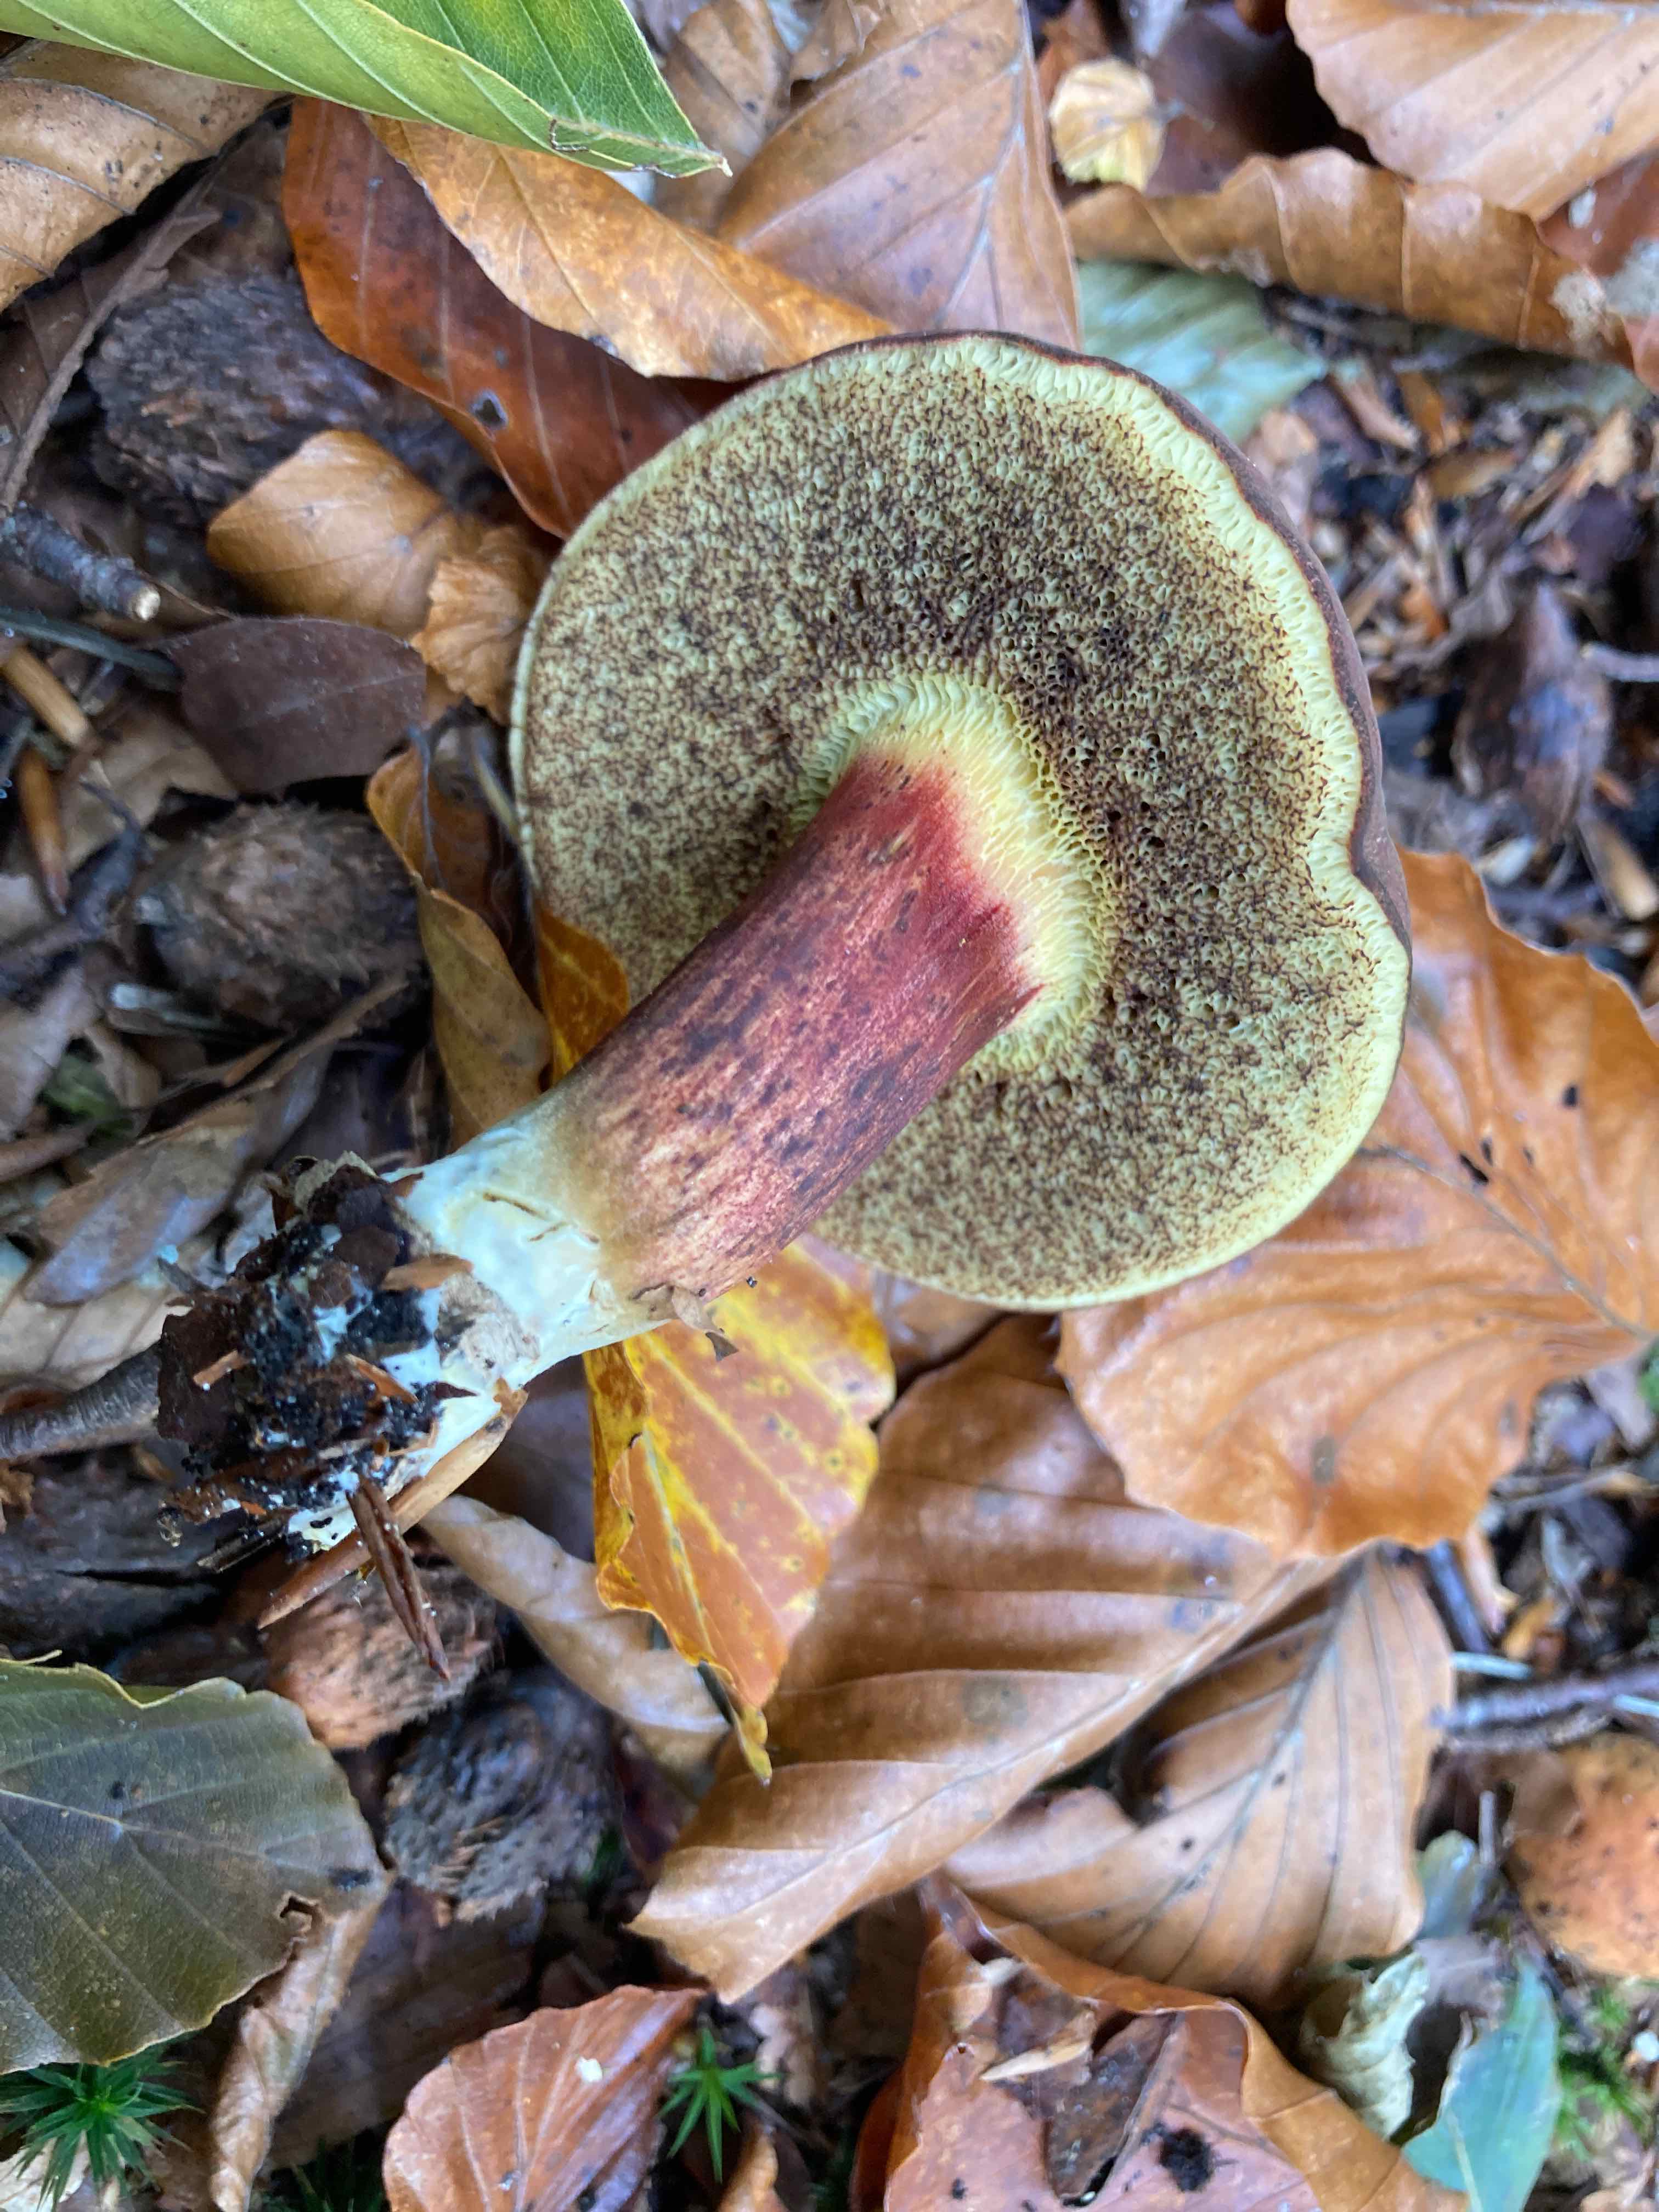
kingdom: Fungi
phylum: Basidiomycota
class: Agaricomycetes
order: Boletales
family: Boletaceae
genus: Xerocomellus
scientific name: Xerocomellus
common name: dværgrørhat
